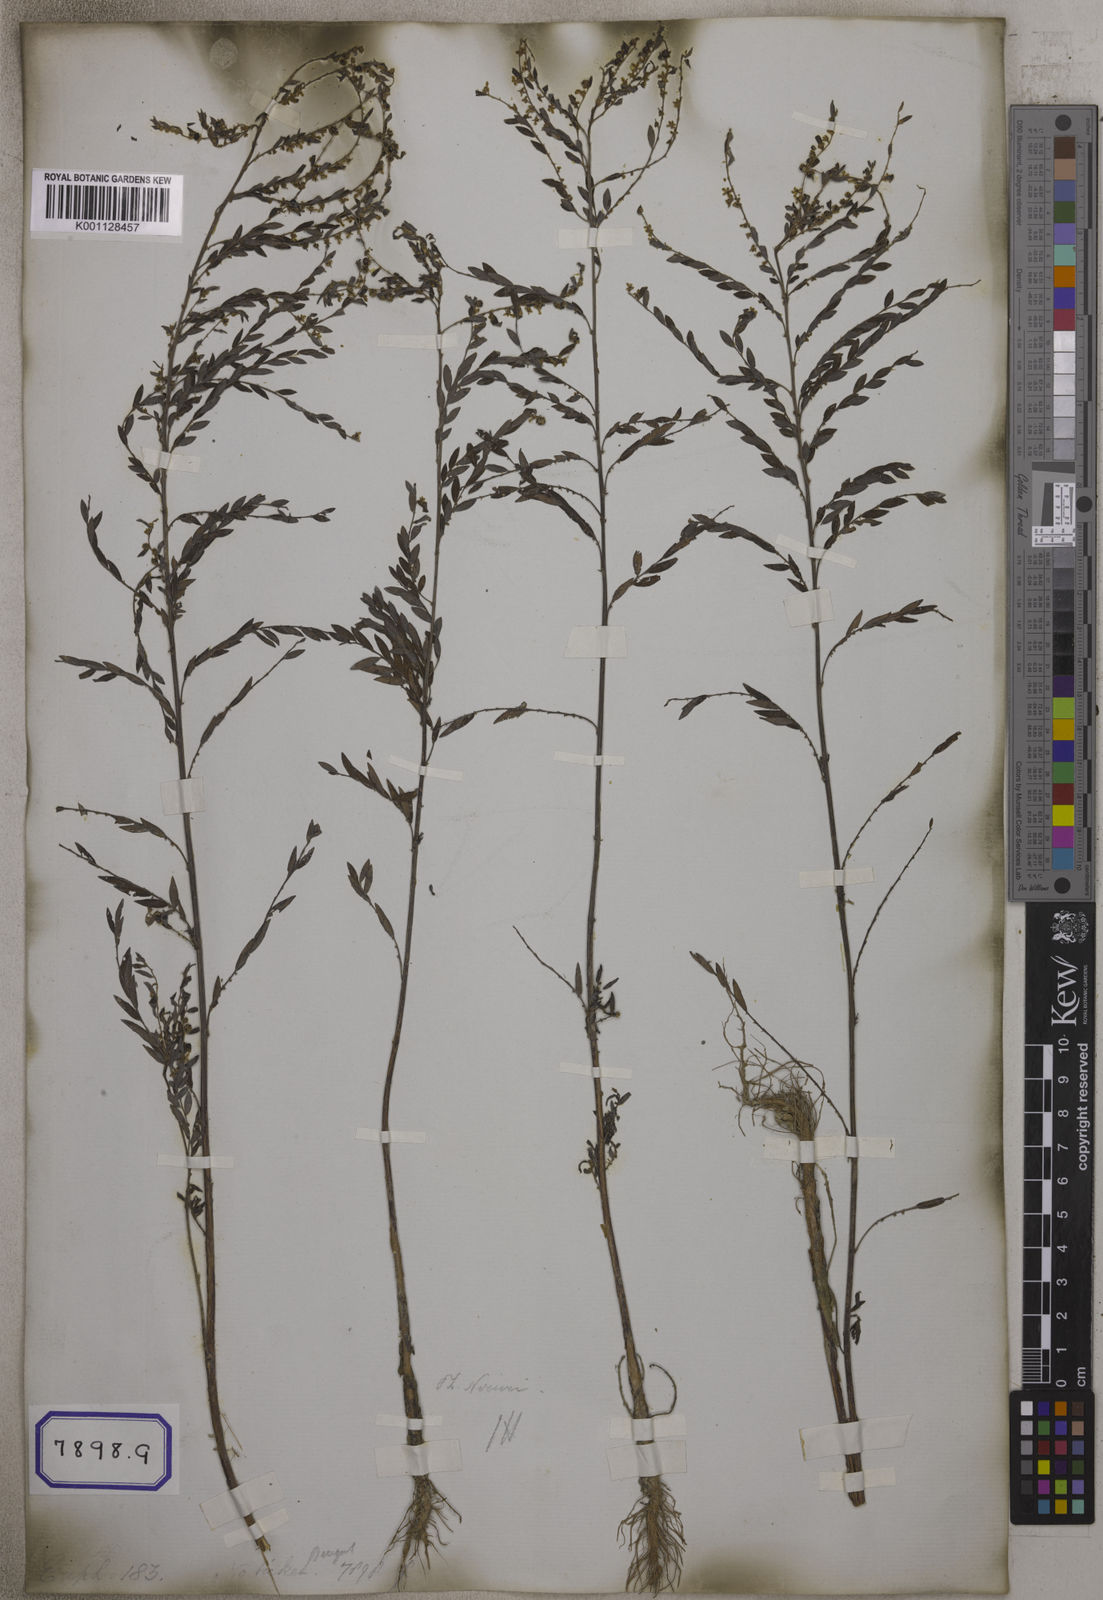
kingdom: Plantae
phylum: Tracheophyta
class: Magnoliopsida
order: Malpighiales
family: Euphorbiaceae
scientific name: Euphorbiaceae
